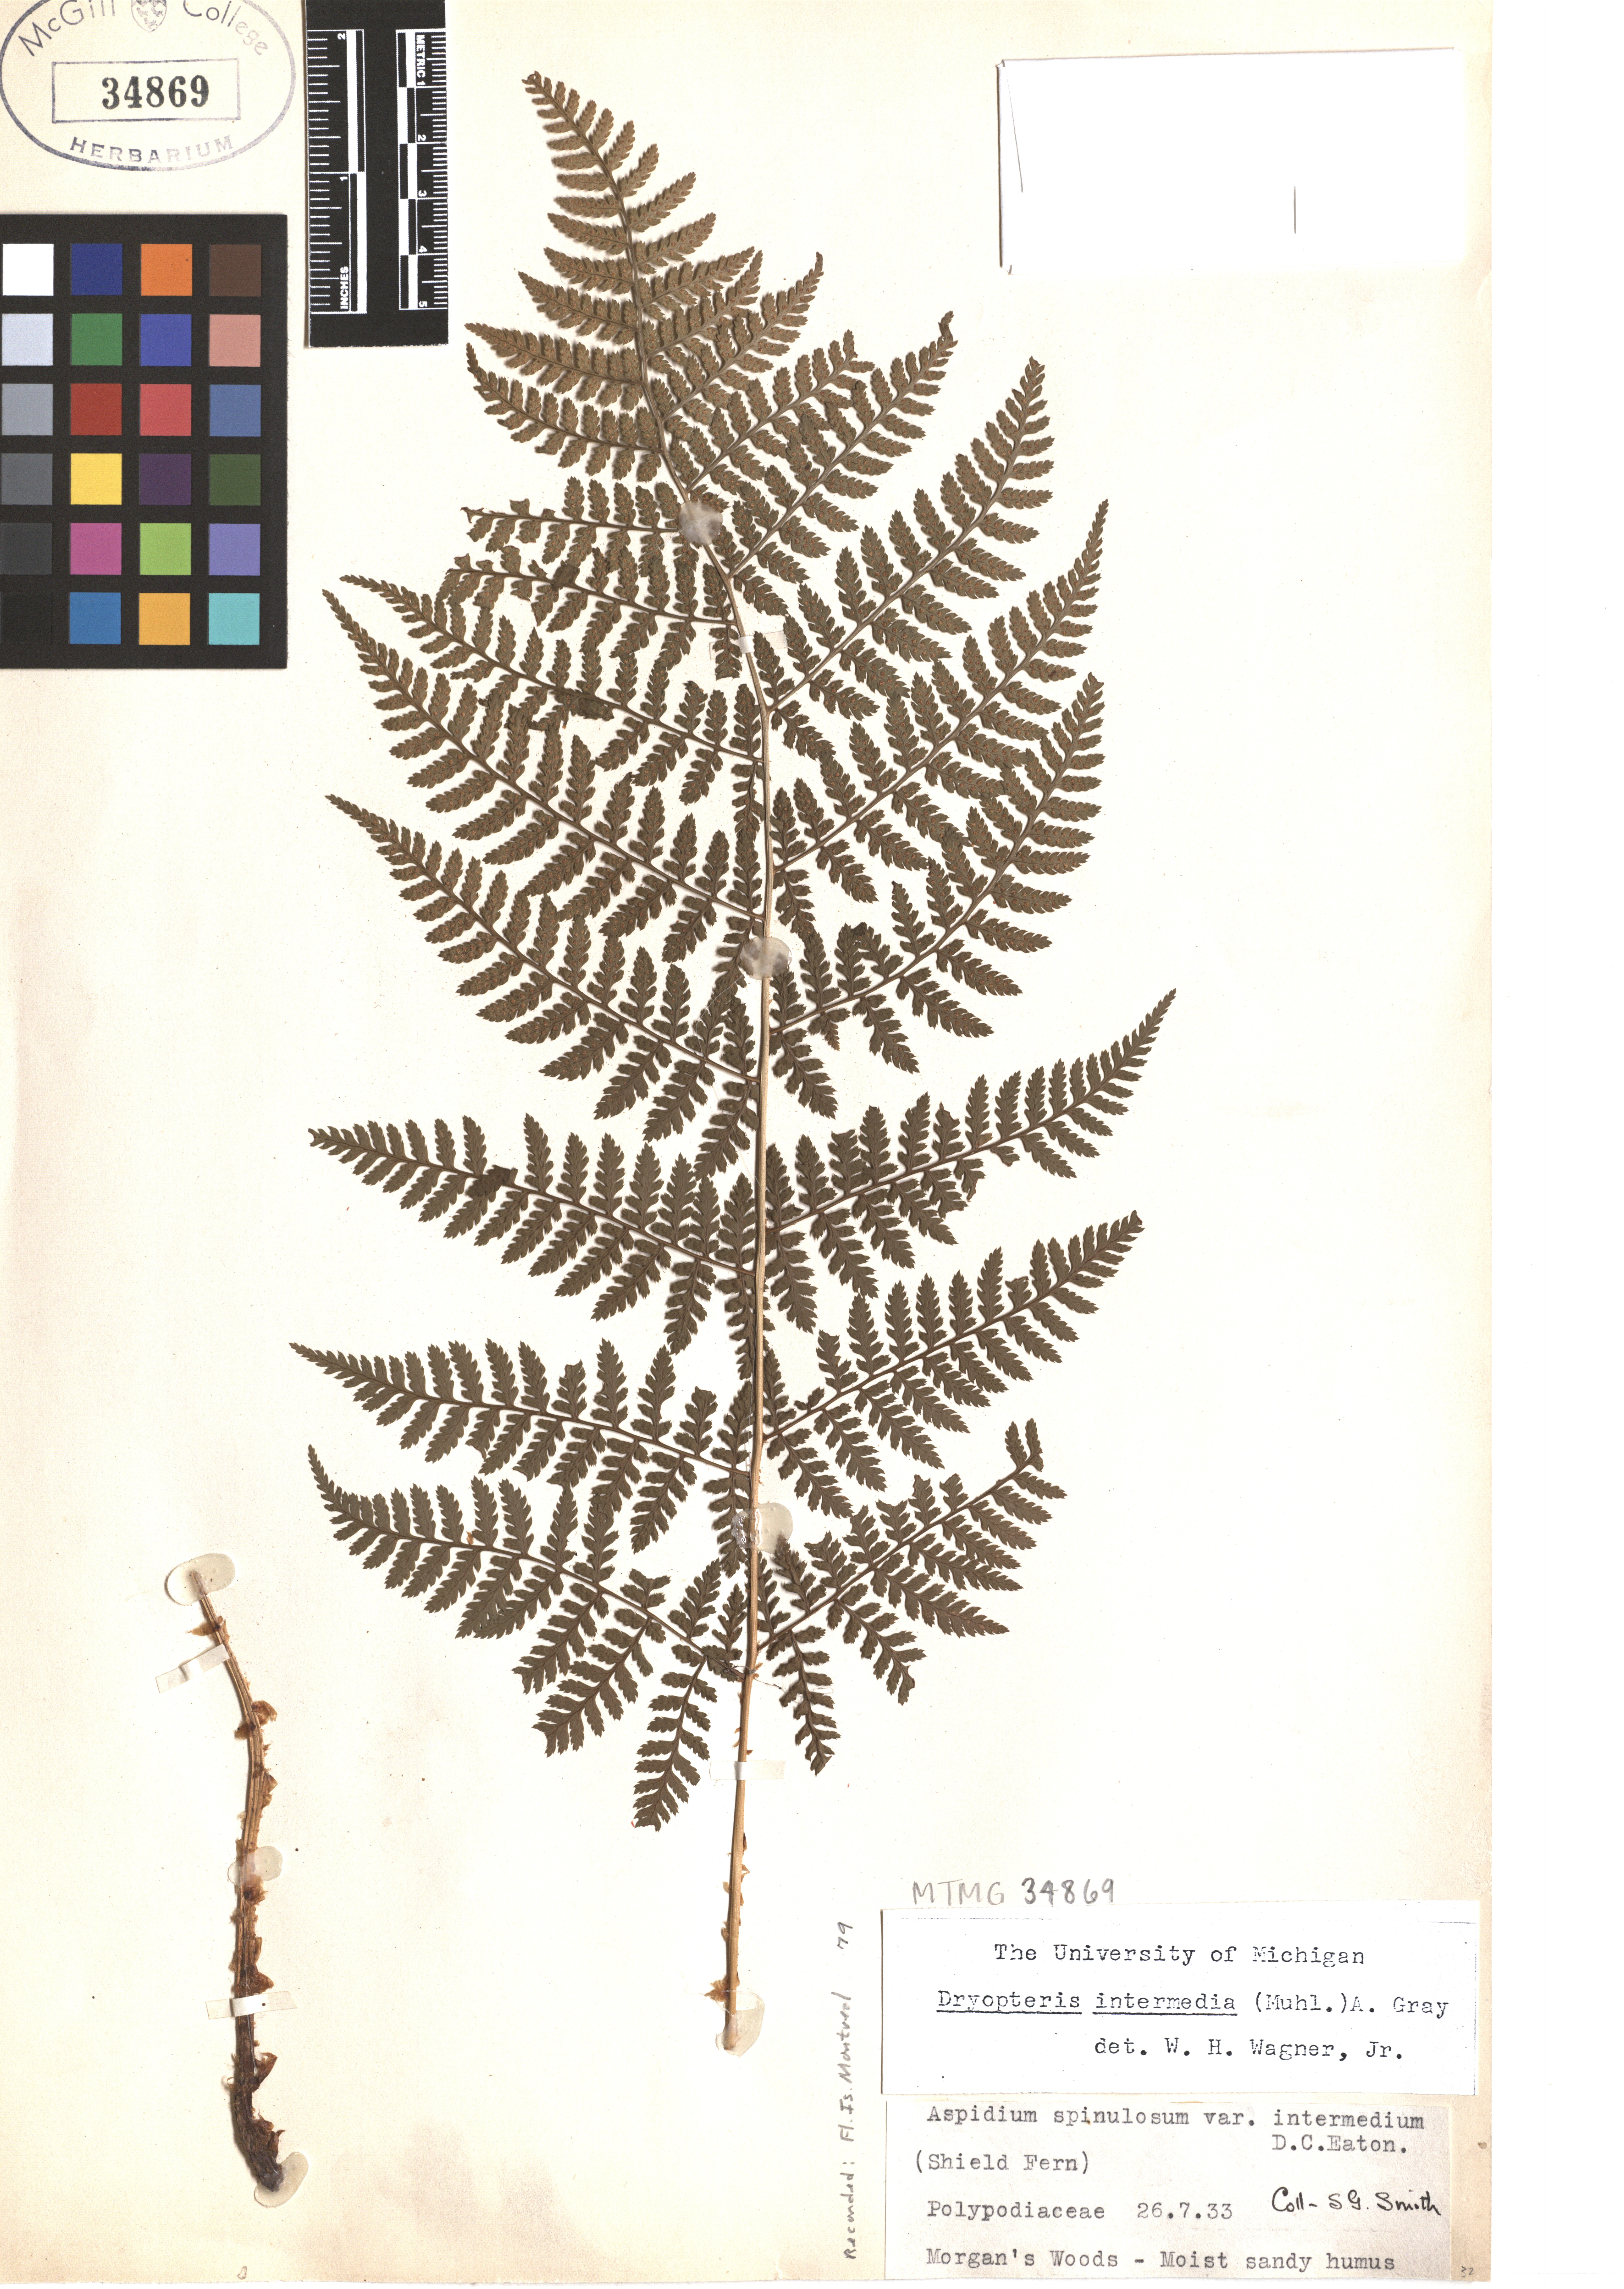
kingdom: Plantae
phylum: Tracheophyta
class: Polypodiopsida
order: Polypodiales
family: Dryopteridaceae
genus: Dryopteris
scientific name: Dryopteris intermedia
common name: Evergreen wood fern
